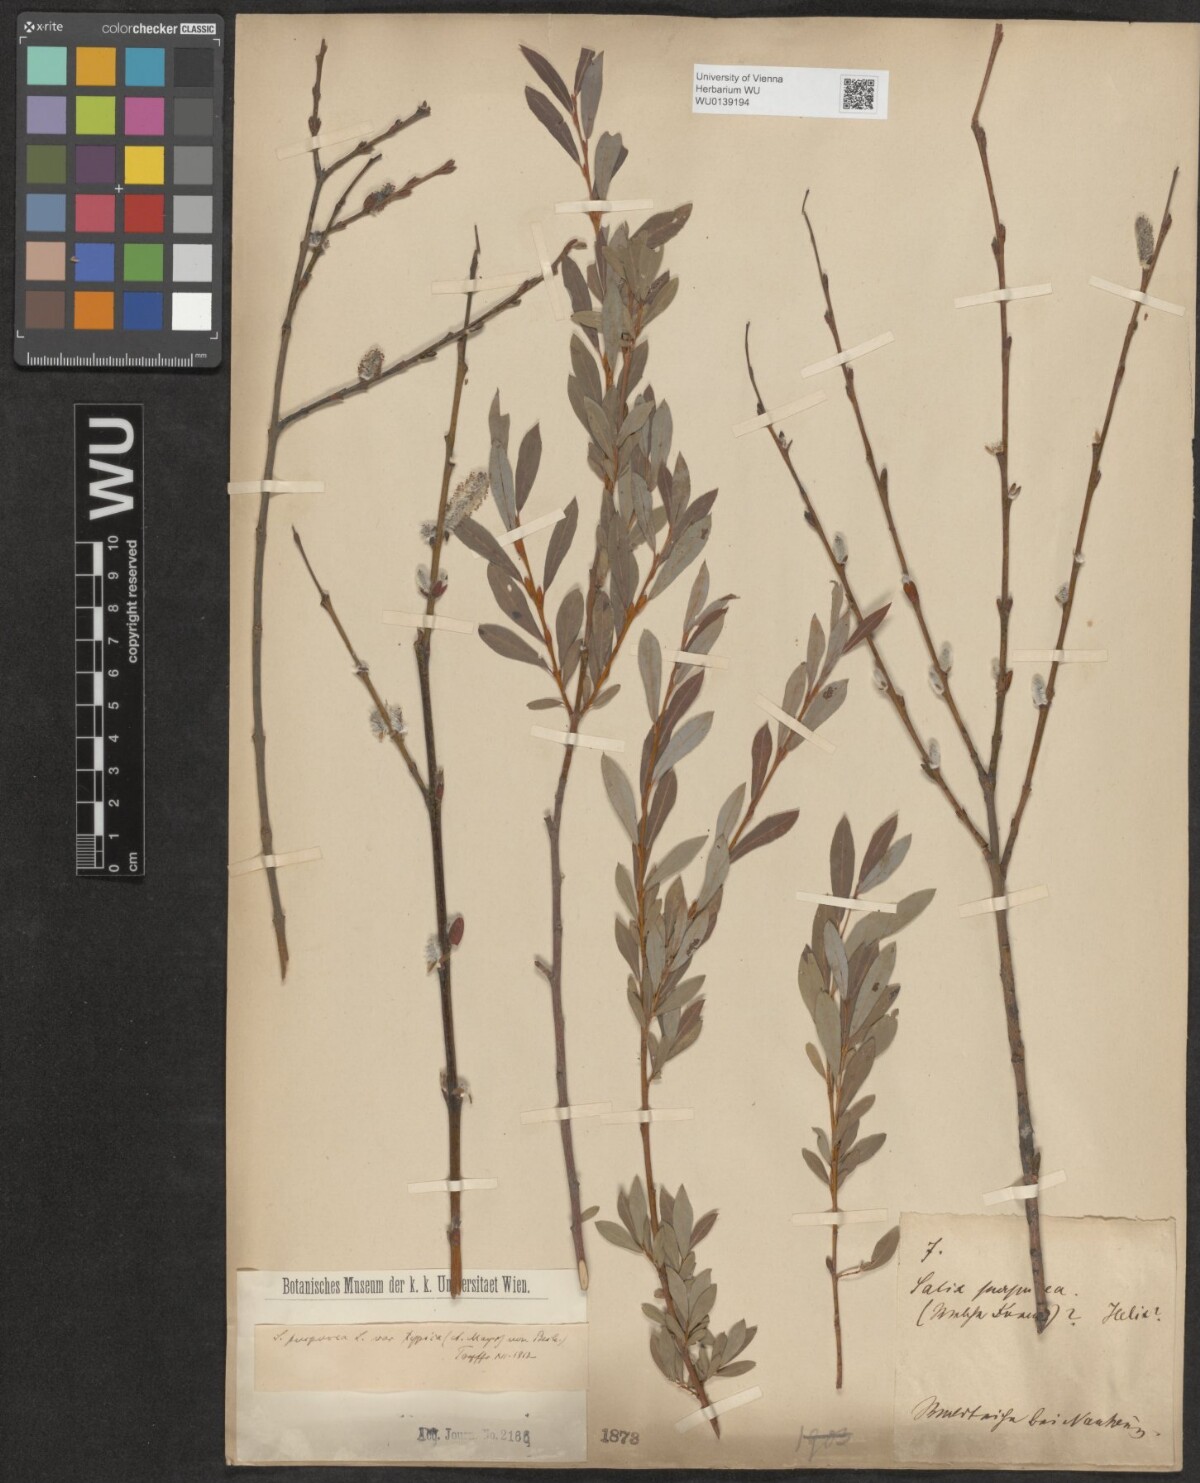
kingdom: Plantae
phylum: Tracheophyta
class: Magnoliopsida
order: Malpighiales
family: Salicaceae
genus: Salix
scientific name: Salix purpurea
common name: Purple willow
